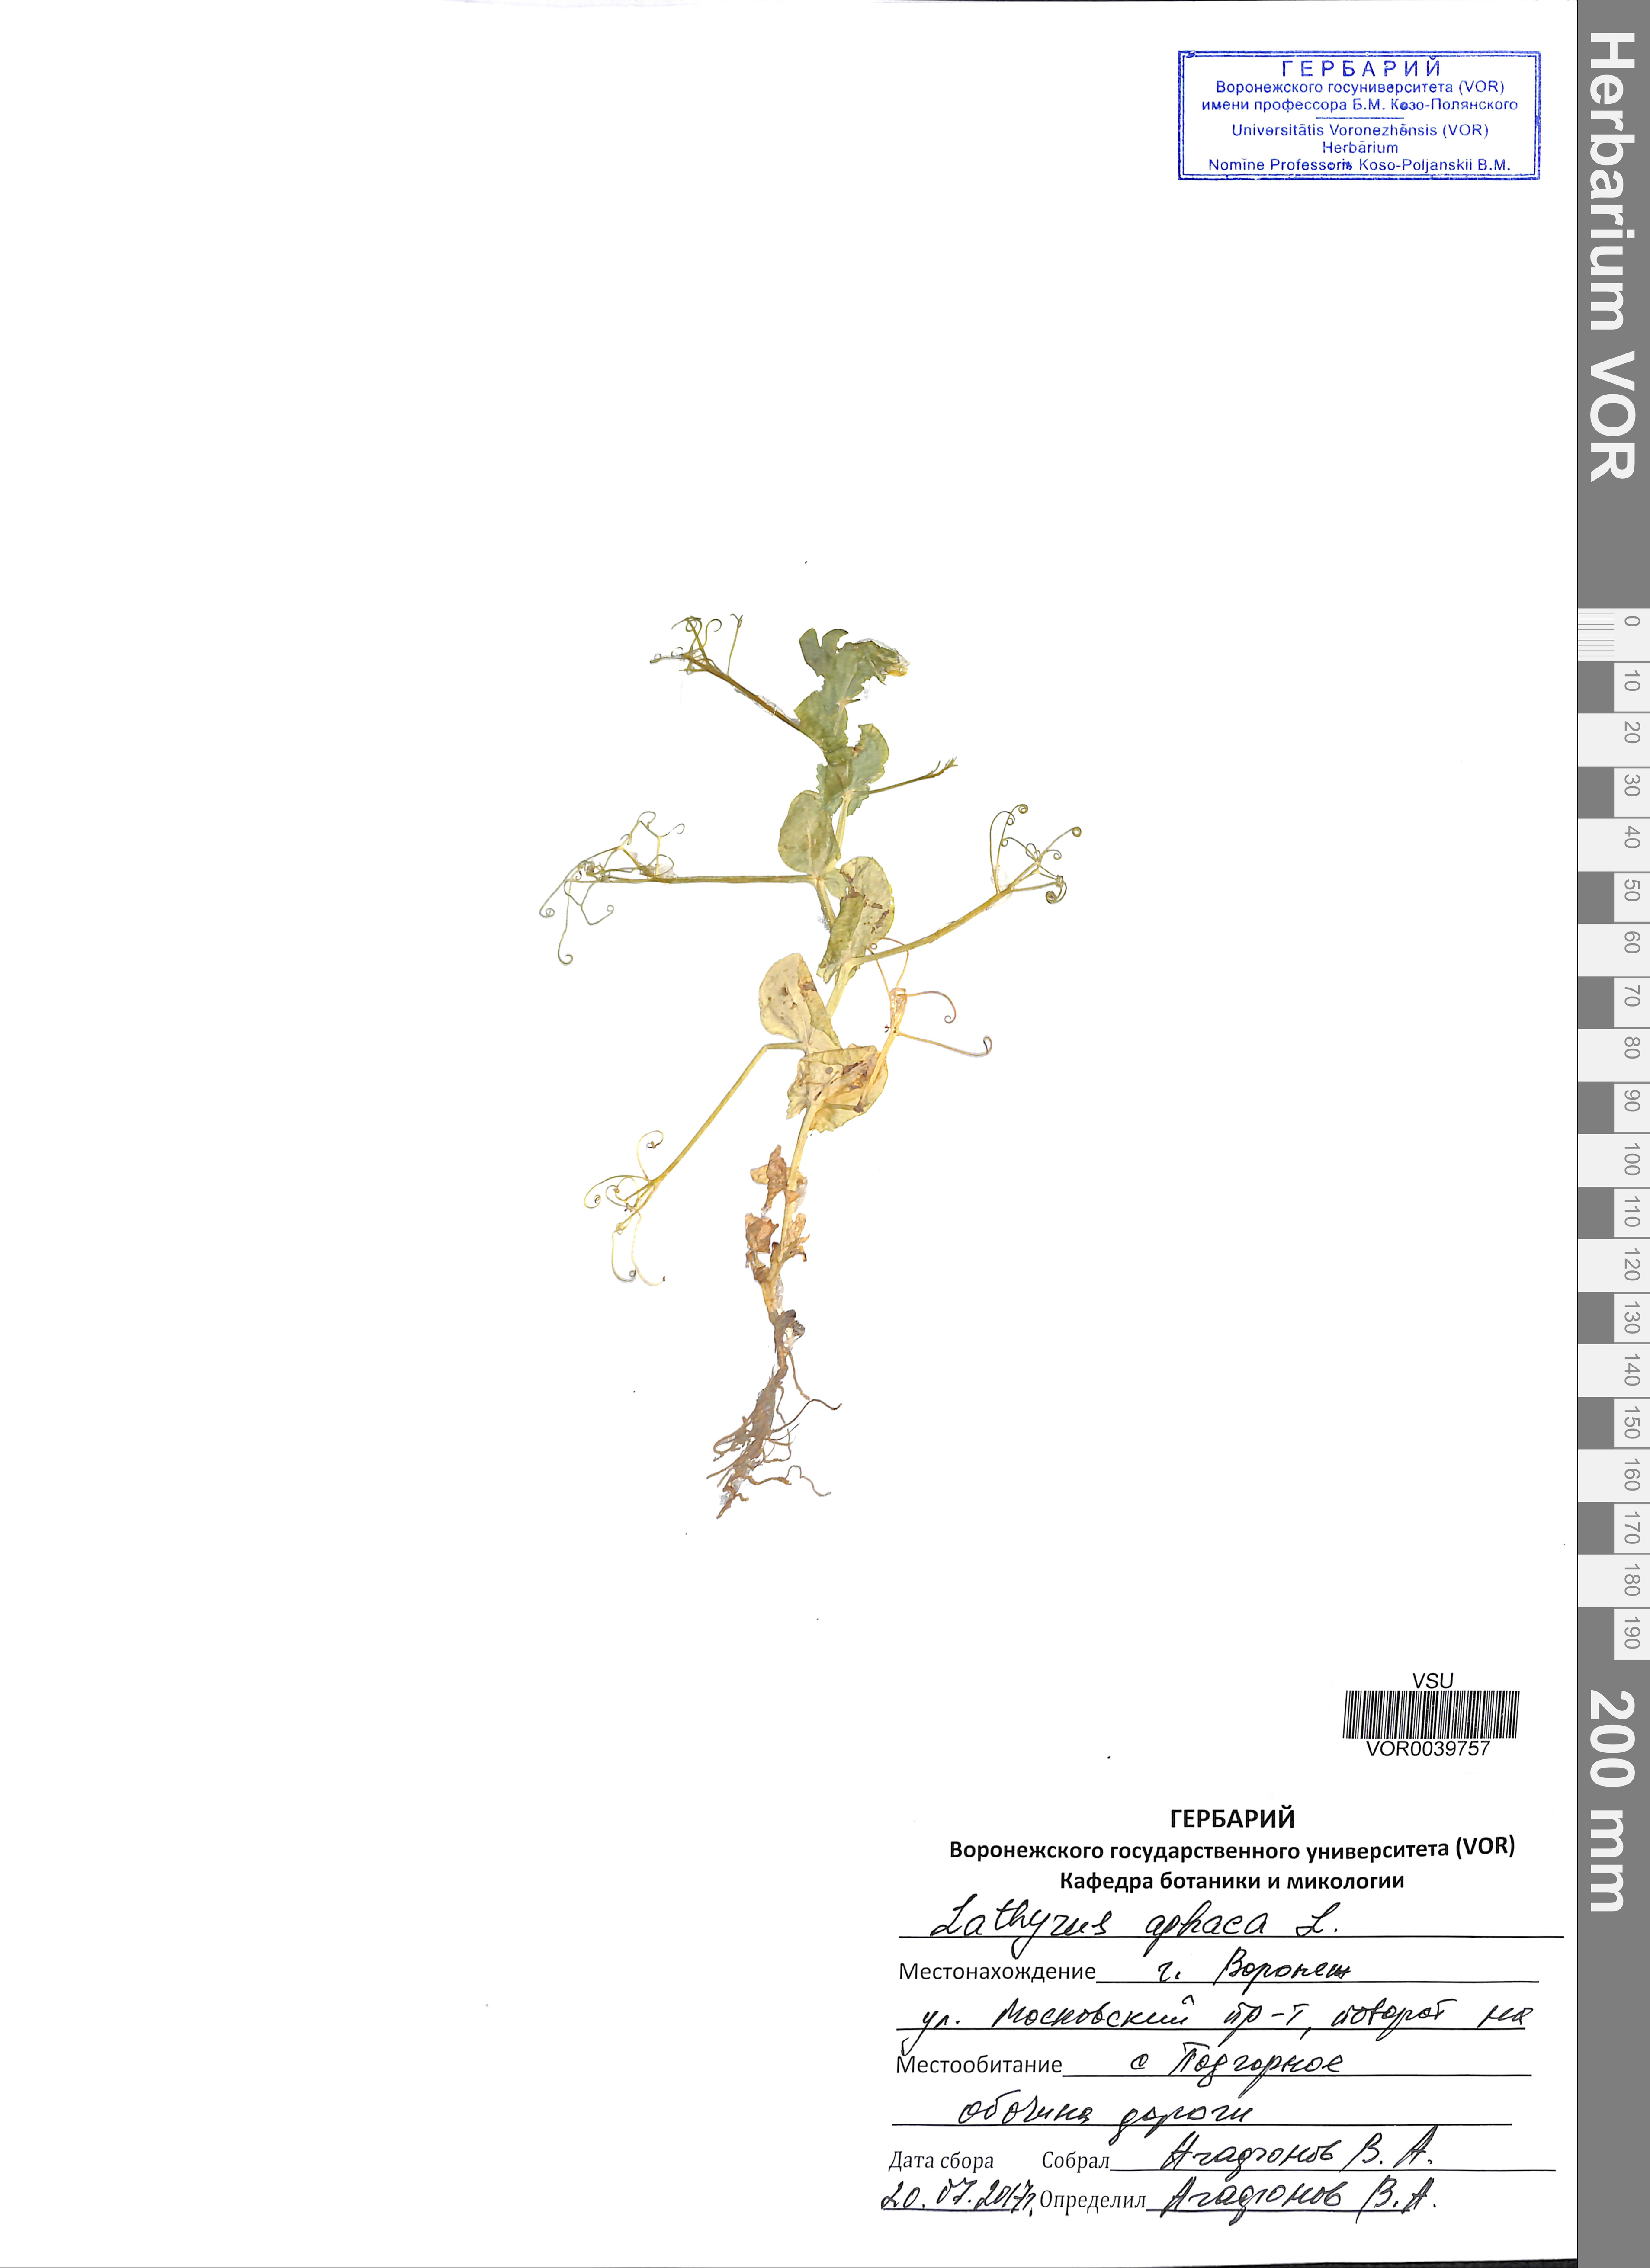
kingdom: Plantae
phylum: Tracheophyta
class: Magnoliopsida
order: Fabales
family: Fabaceae
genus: Lathyrus
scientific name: Lathyrus aphaca
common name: Yellow vetchling
